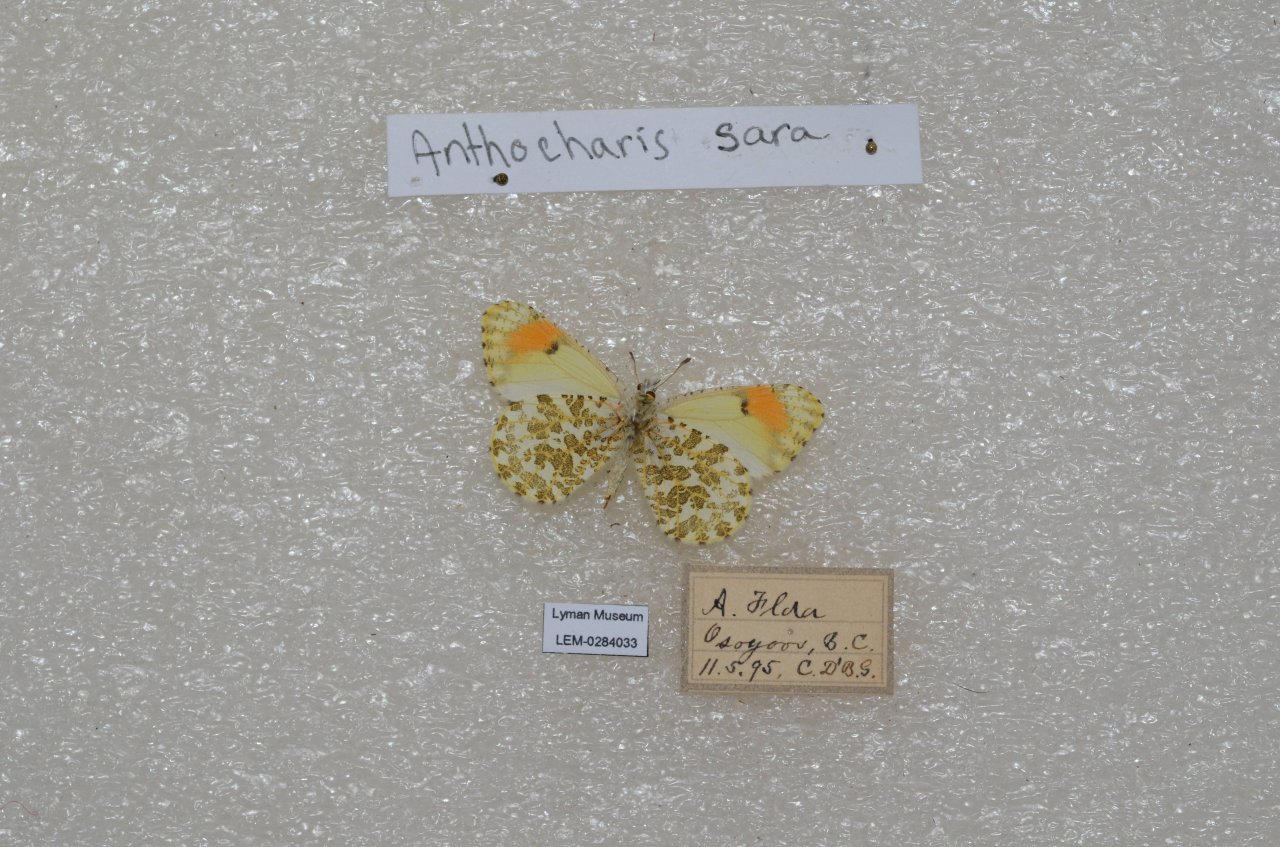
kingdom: Animalia
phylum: Arthropoda
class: Insecta
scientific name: Insecta
